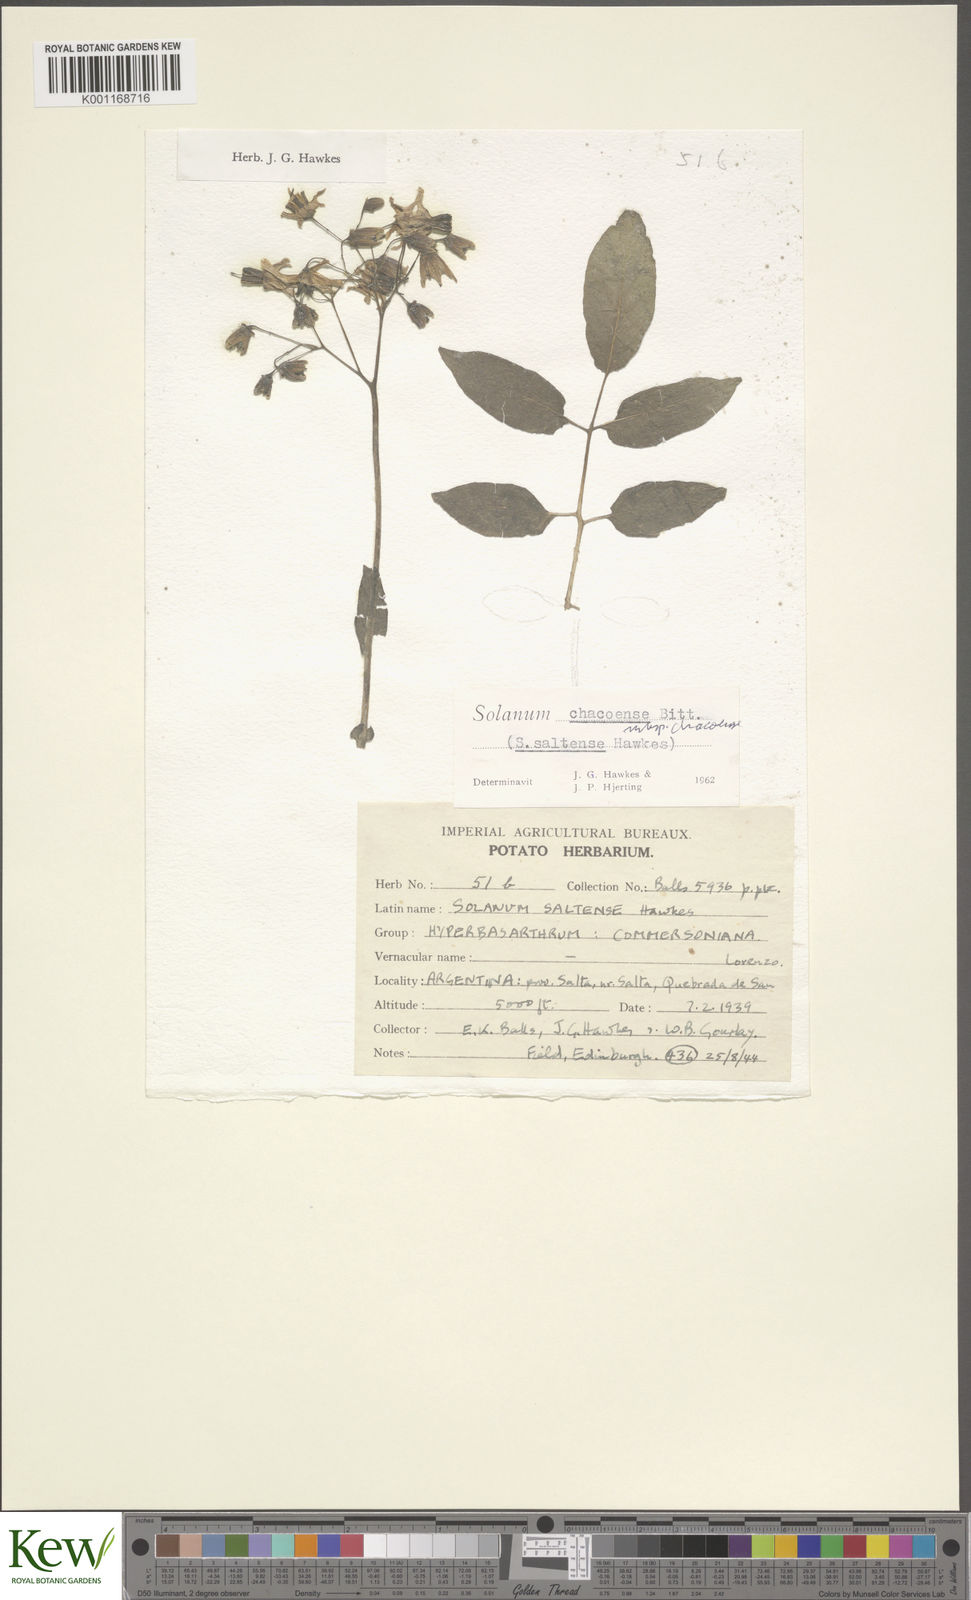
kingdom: Plantae
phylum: Tracheophyta
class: Magnoliopsida
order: Solanales
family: Solanaceae
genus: Solanum
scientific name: Solanum chacoense
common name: Chaco potato
